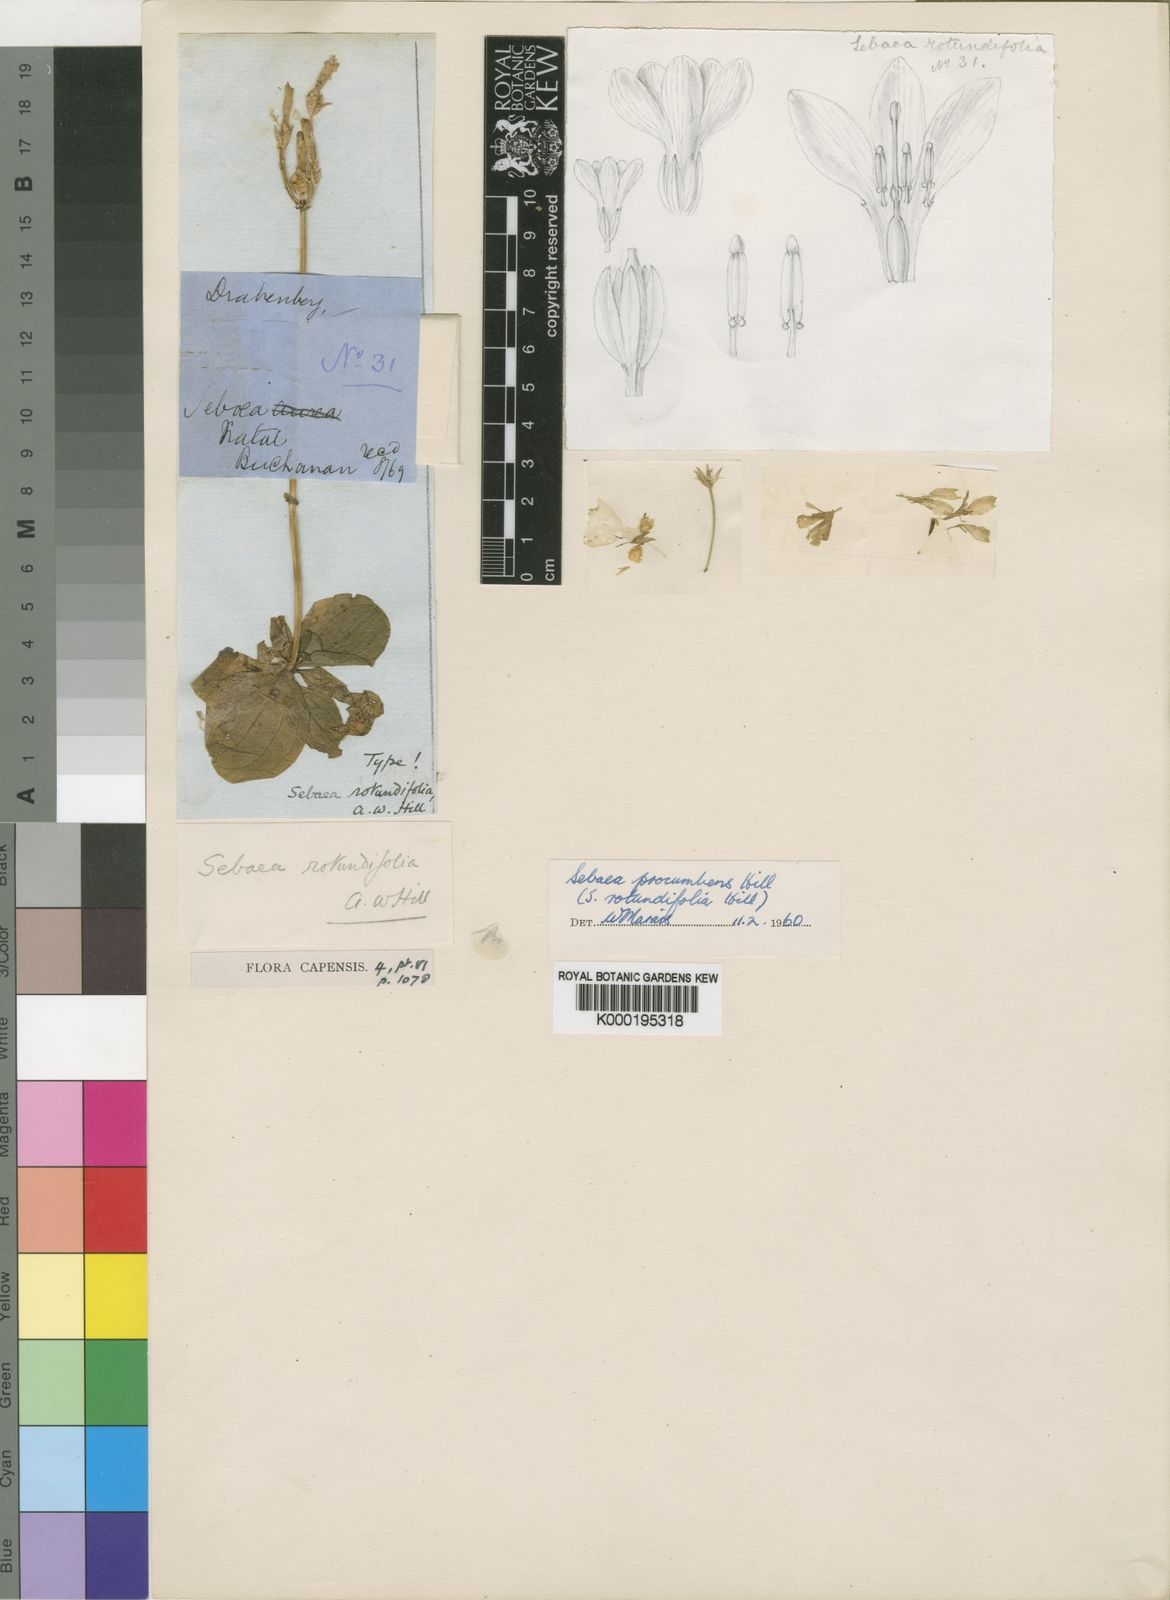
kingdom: Plantae
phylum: Tracheophyta
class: Magnoliopsida
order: Gentianales
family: Gentianaceae
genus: Sebaea
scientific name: Sebaea procumbens
